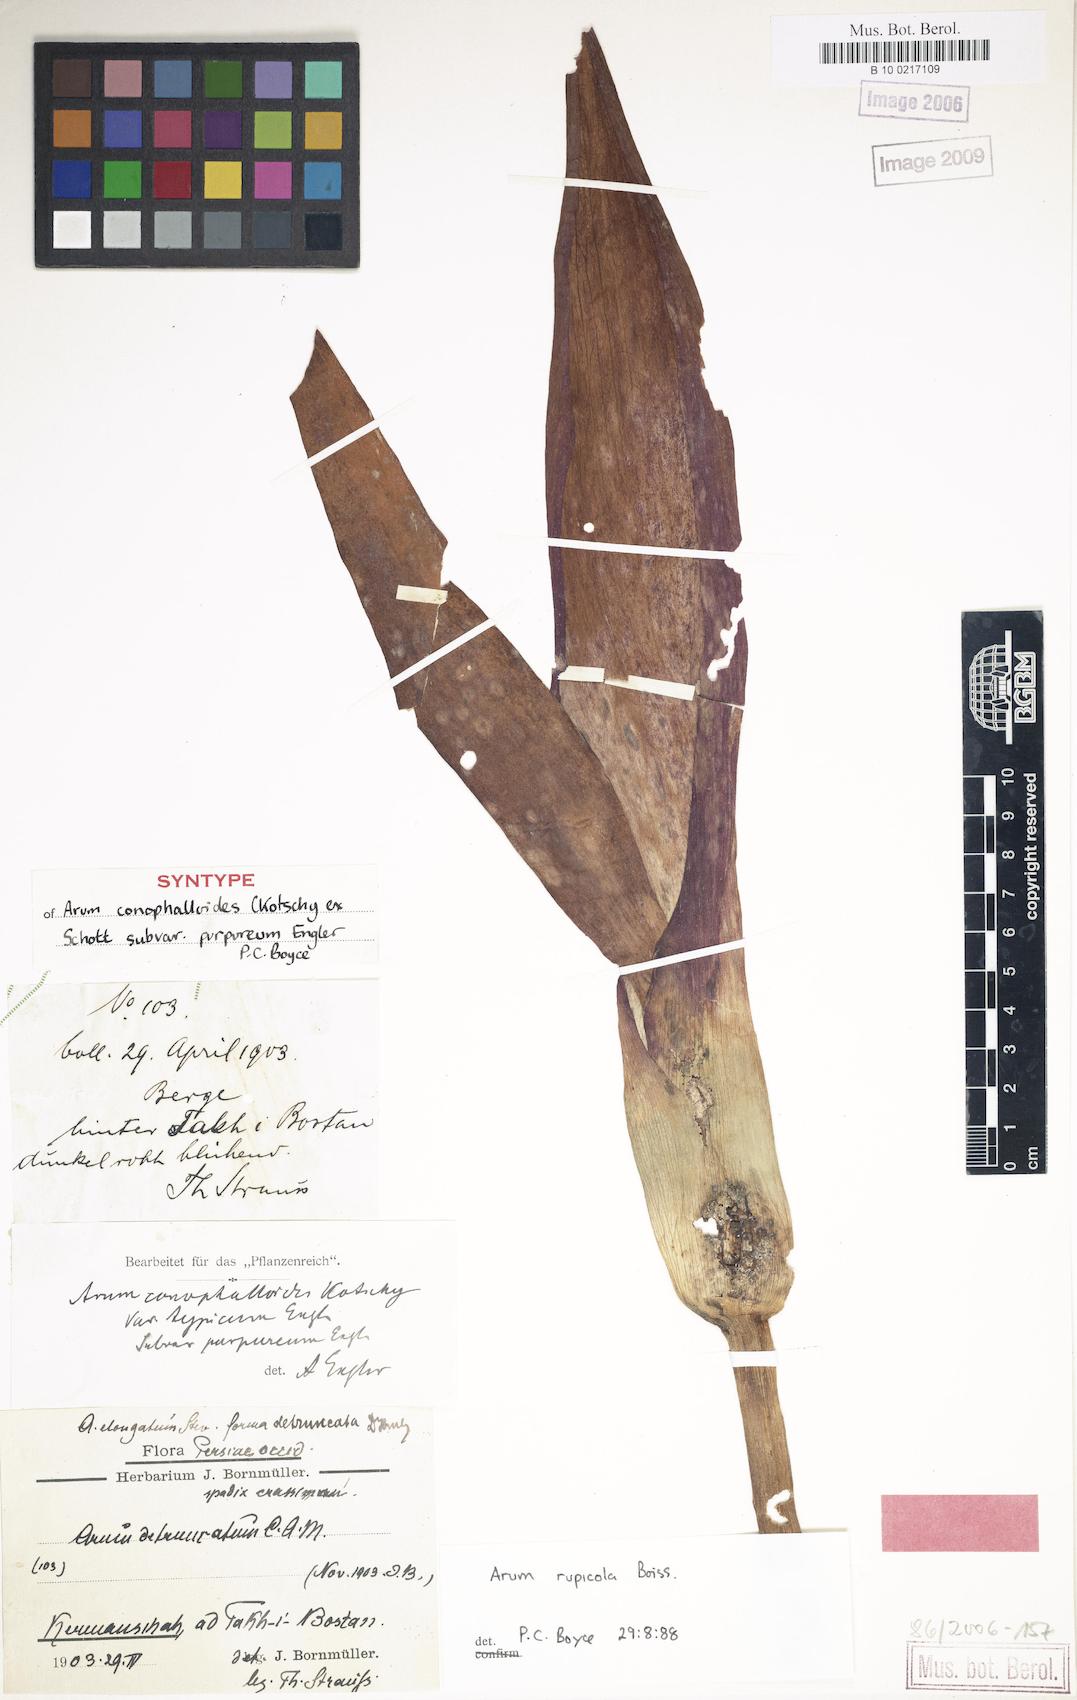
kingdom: Plantae
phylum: Tracheophyta
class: Liliopsida
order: Alismatales
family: Araceae
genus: Arum
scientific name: Arum rupicola
